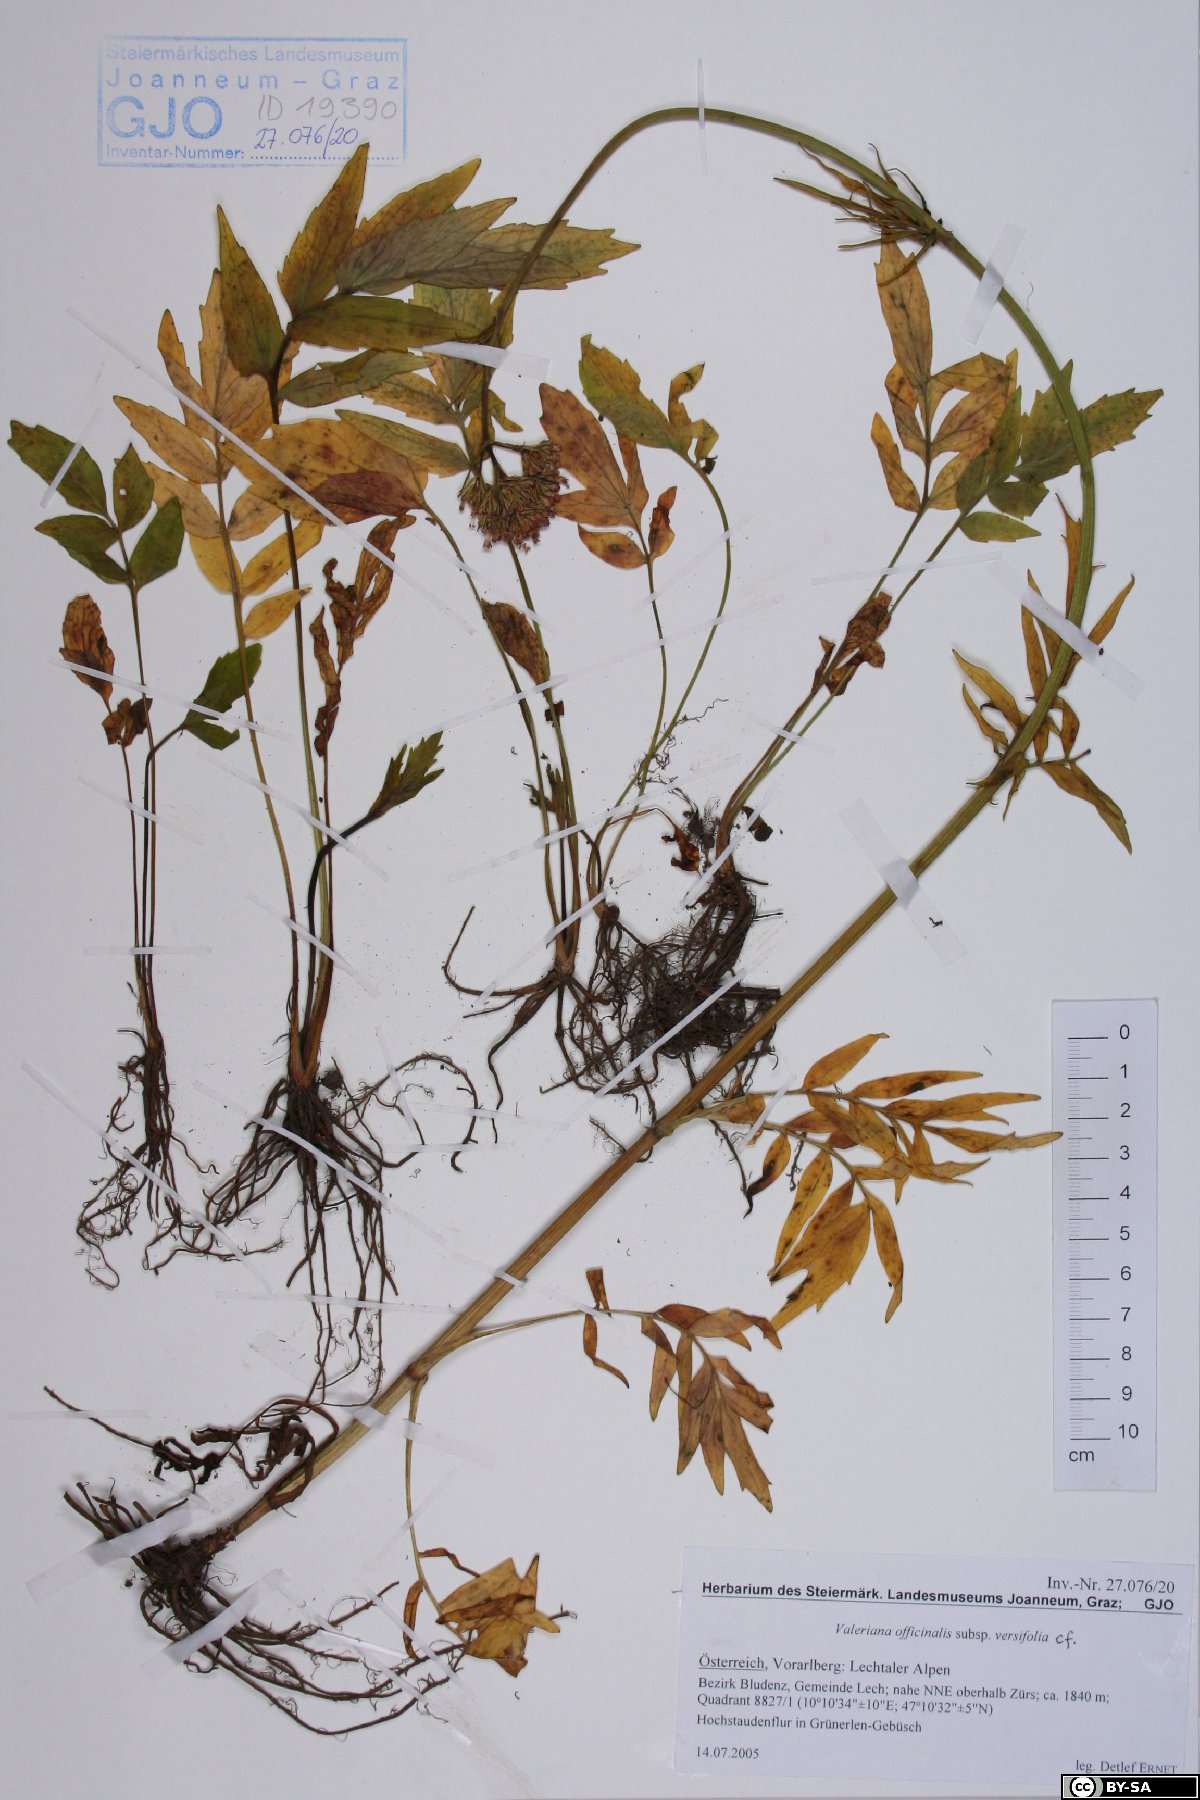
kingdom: Plantae
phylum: Tracheophyta
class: Magnoliopsida
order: Dipsacales
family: Caprifoliaceae
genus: Valeriana
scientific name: Valeriana excelsa
